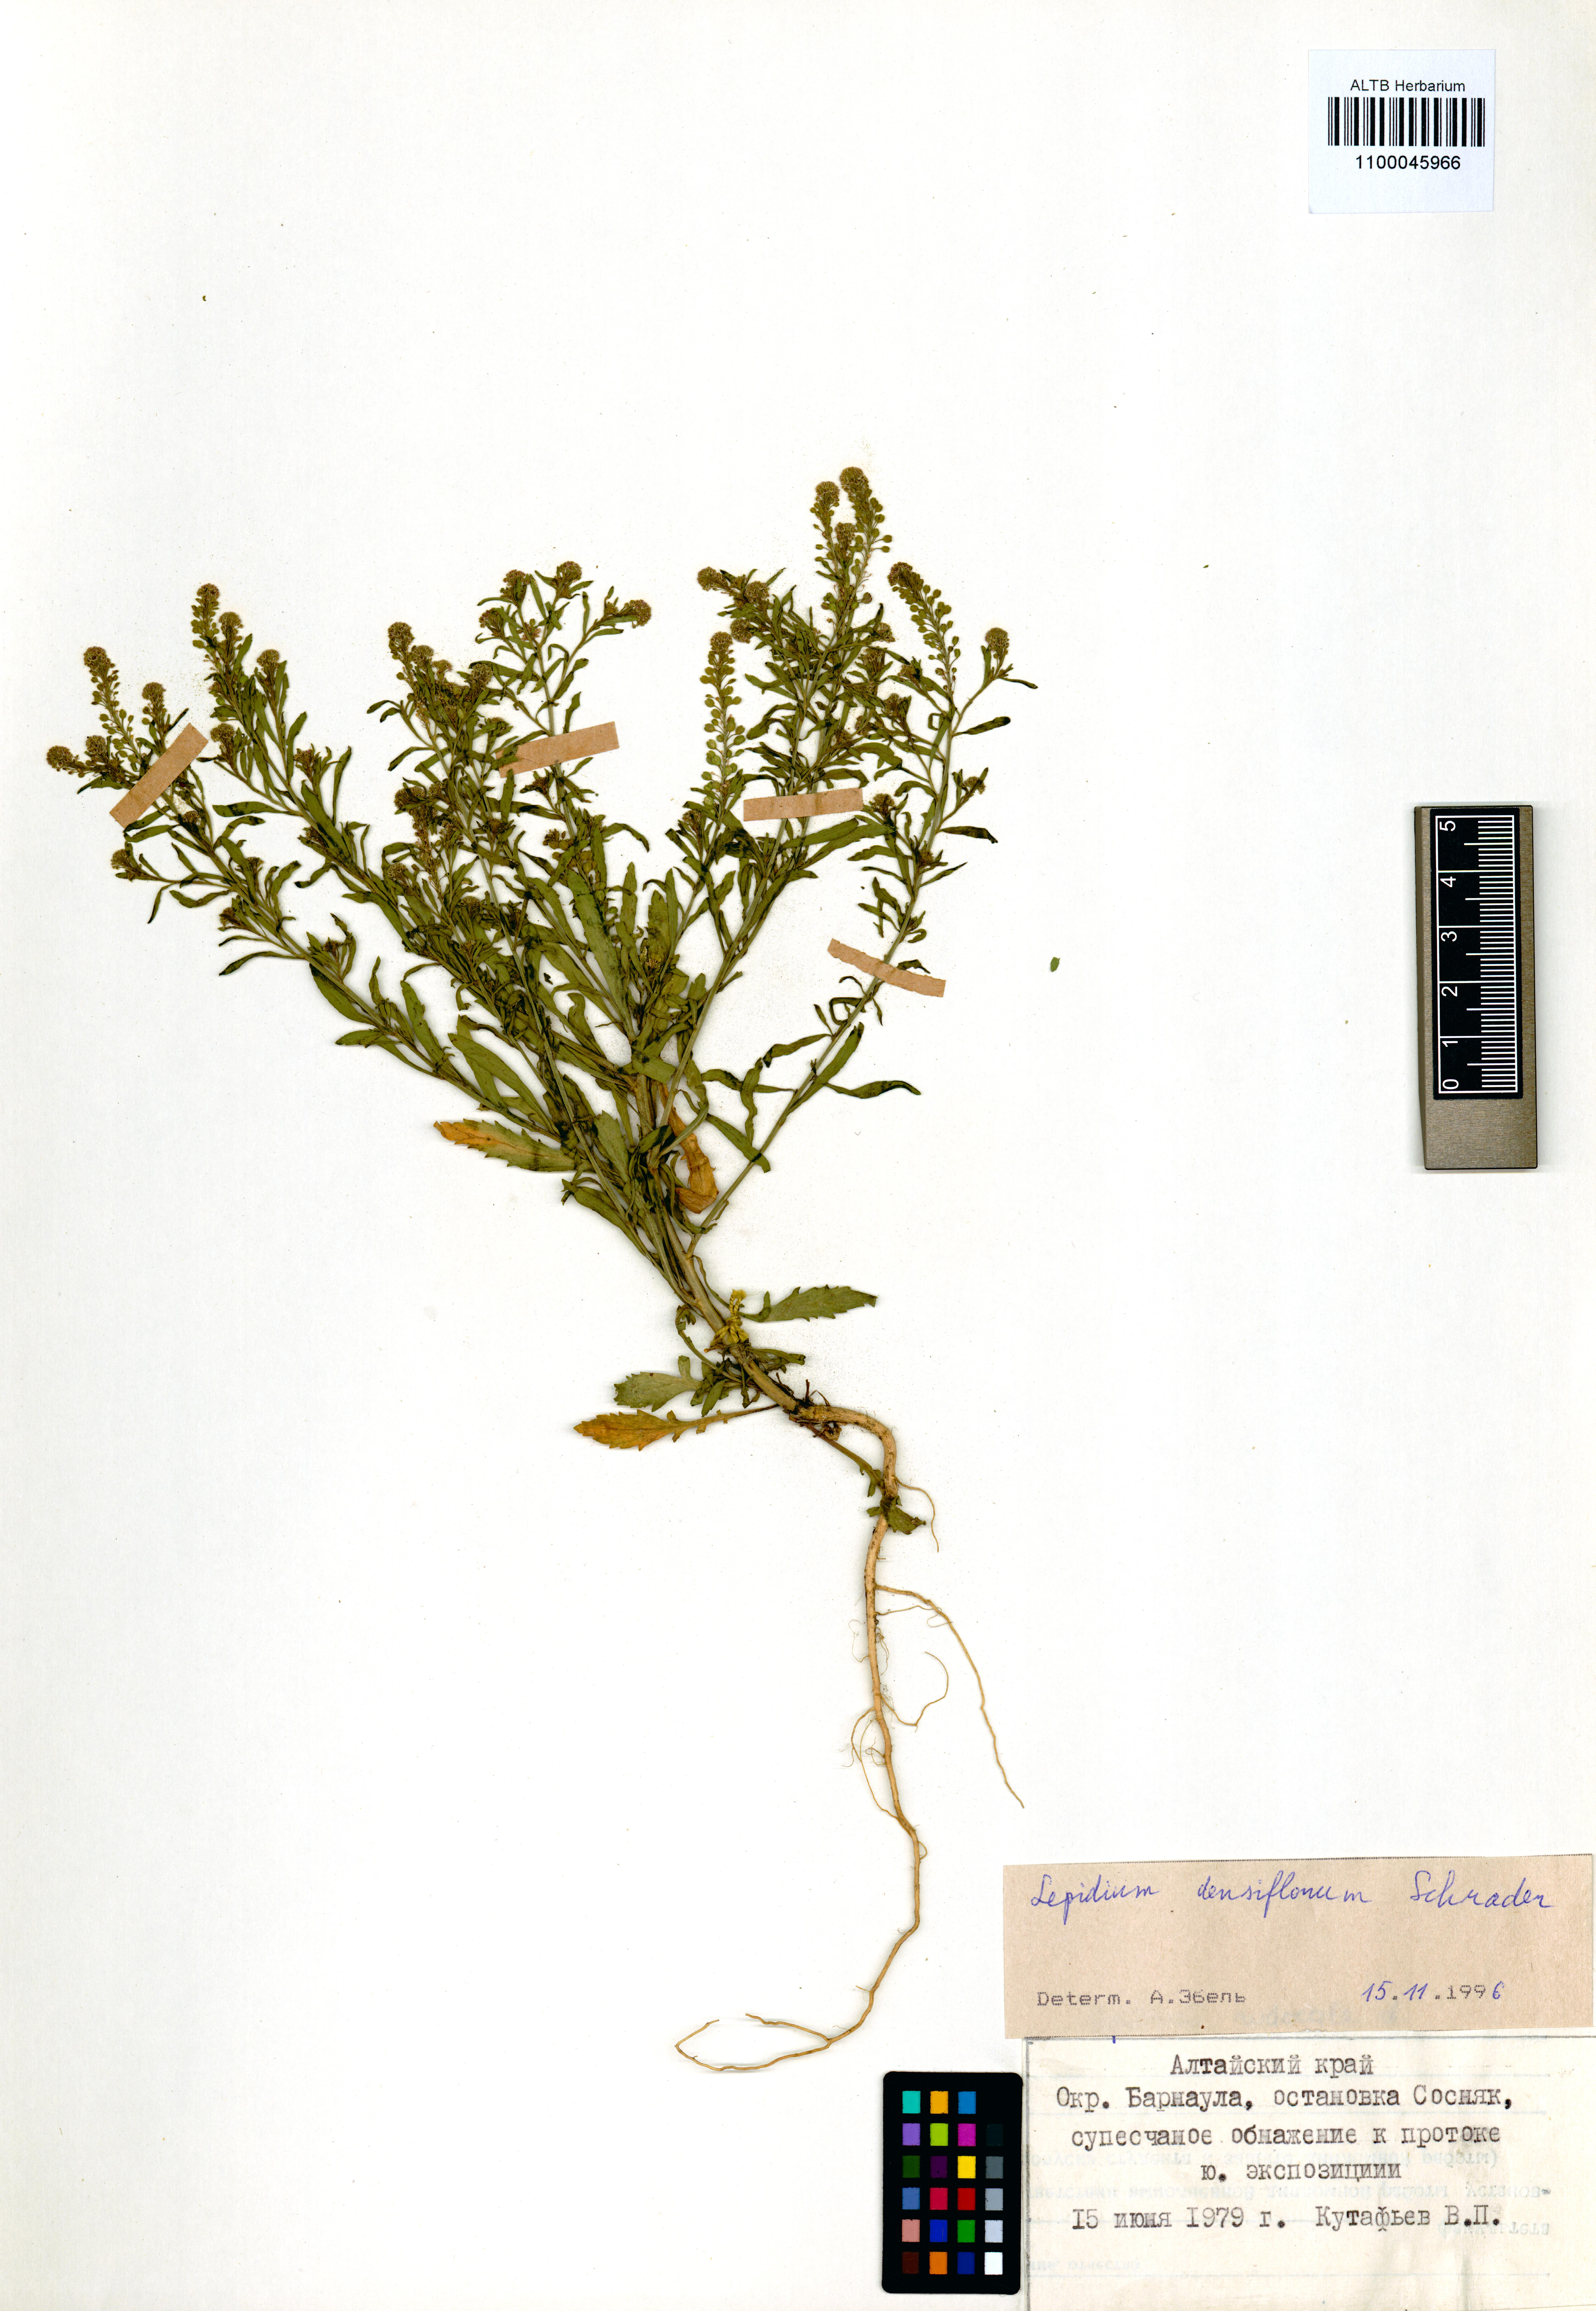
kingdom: Plantae
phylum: Tracheophyta
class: Magnoliopsida
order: Brassicales
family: Brassicaceae
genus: Lepidium
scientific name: Lepidium densiflorum
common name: Miner's pepperwort
